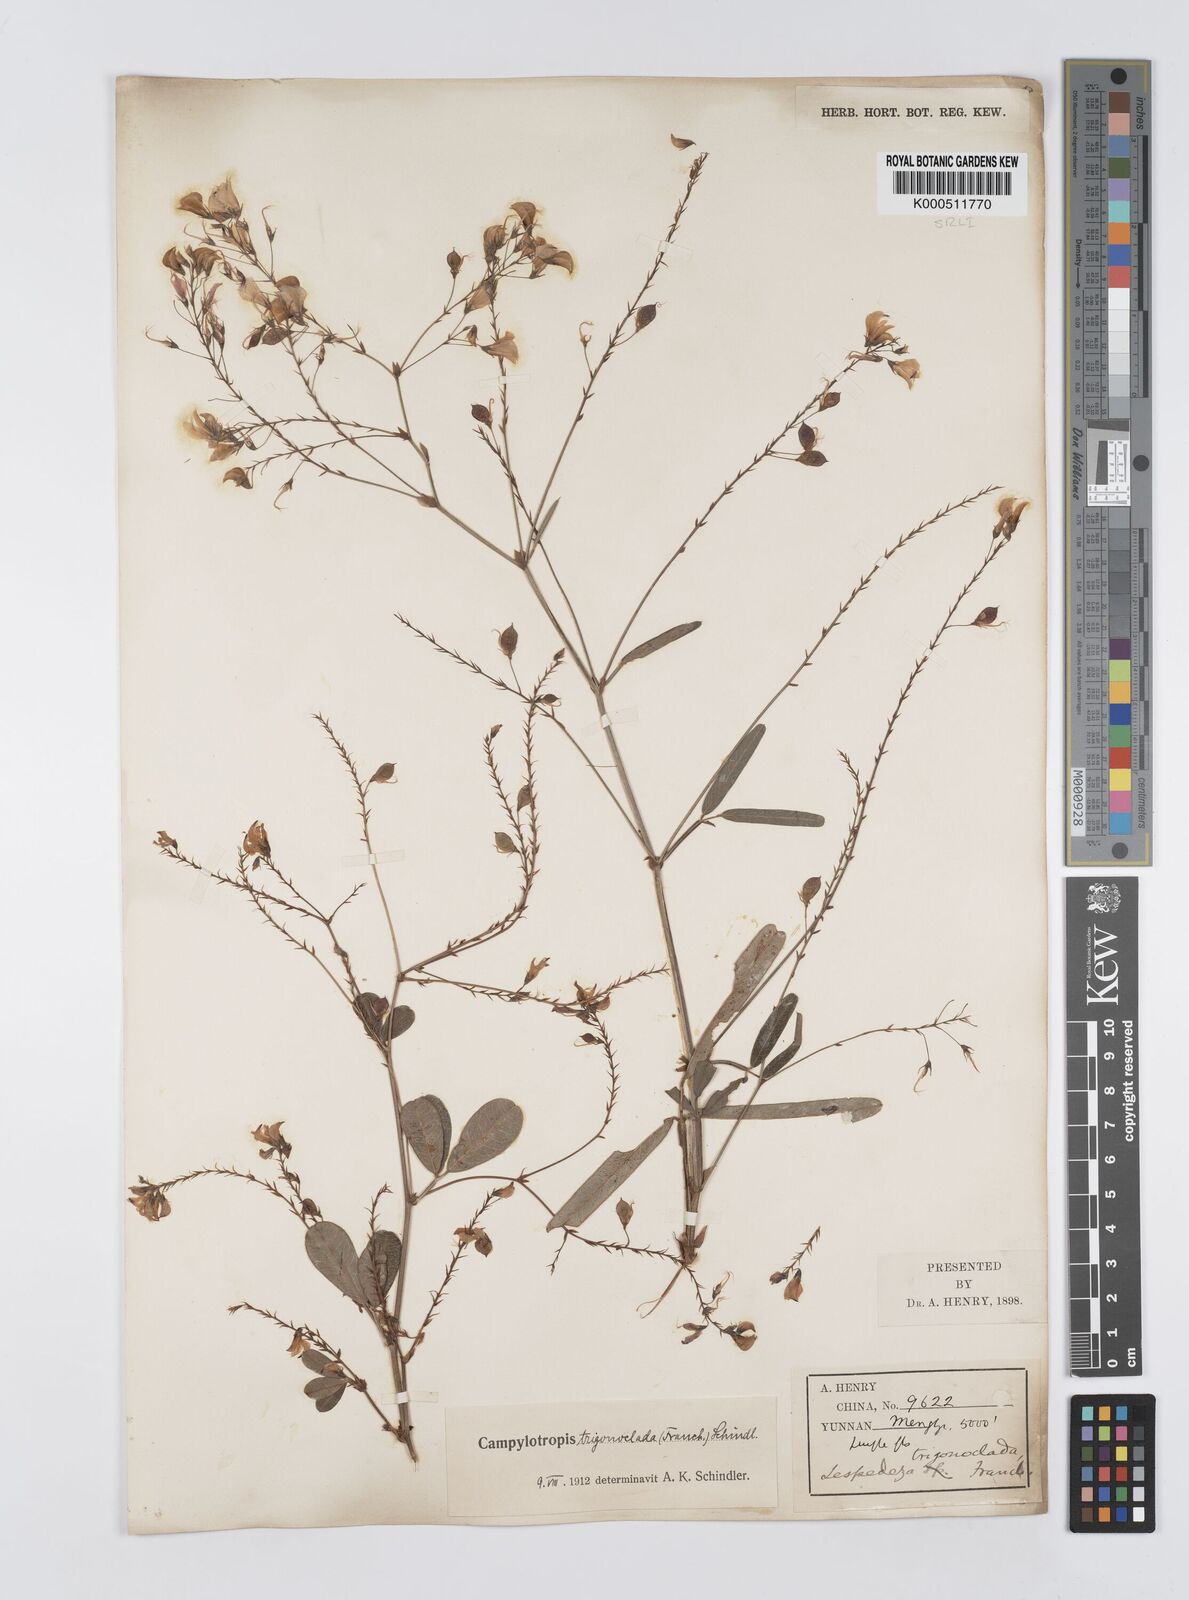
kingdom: Plantae
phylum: Tracheophyta
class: Magnoliopsida
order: Fabales
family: Fabaceae
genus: Campylotropis
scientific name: Campylotropis trigonoclada
